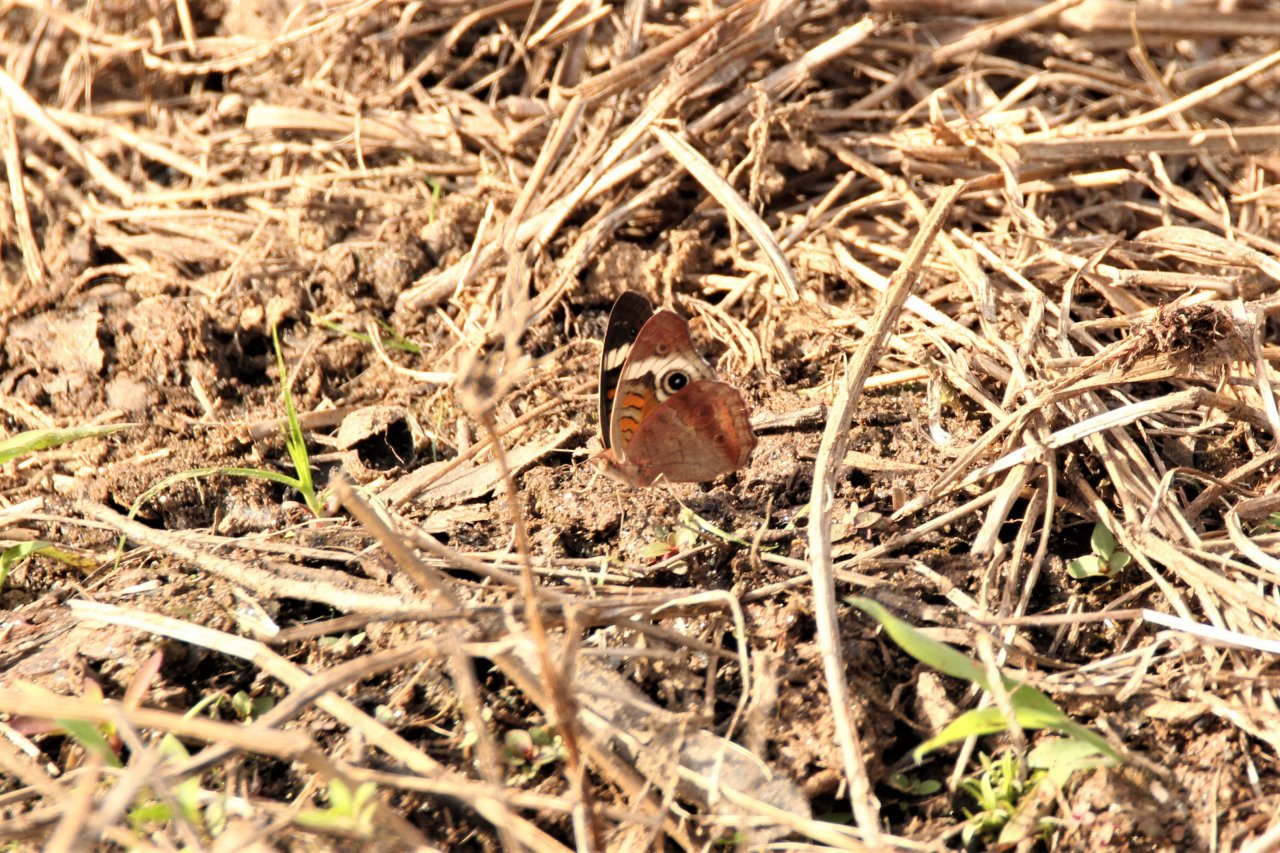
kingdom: Animalia
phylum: Arthropoda
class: Insecta
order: Lepidoptera
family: Nymphalidae
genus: Junonia
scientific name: Junonia coenia
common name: Common Buckeye
